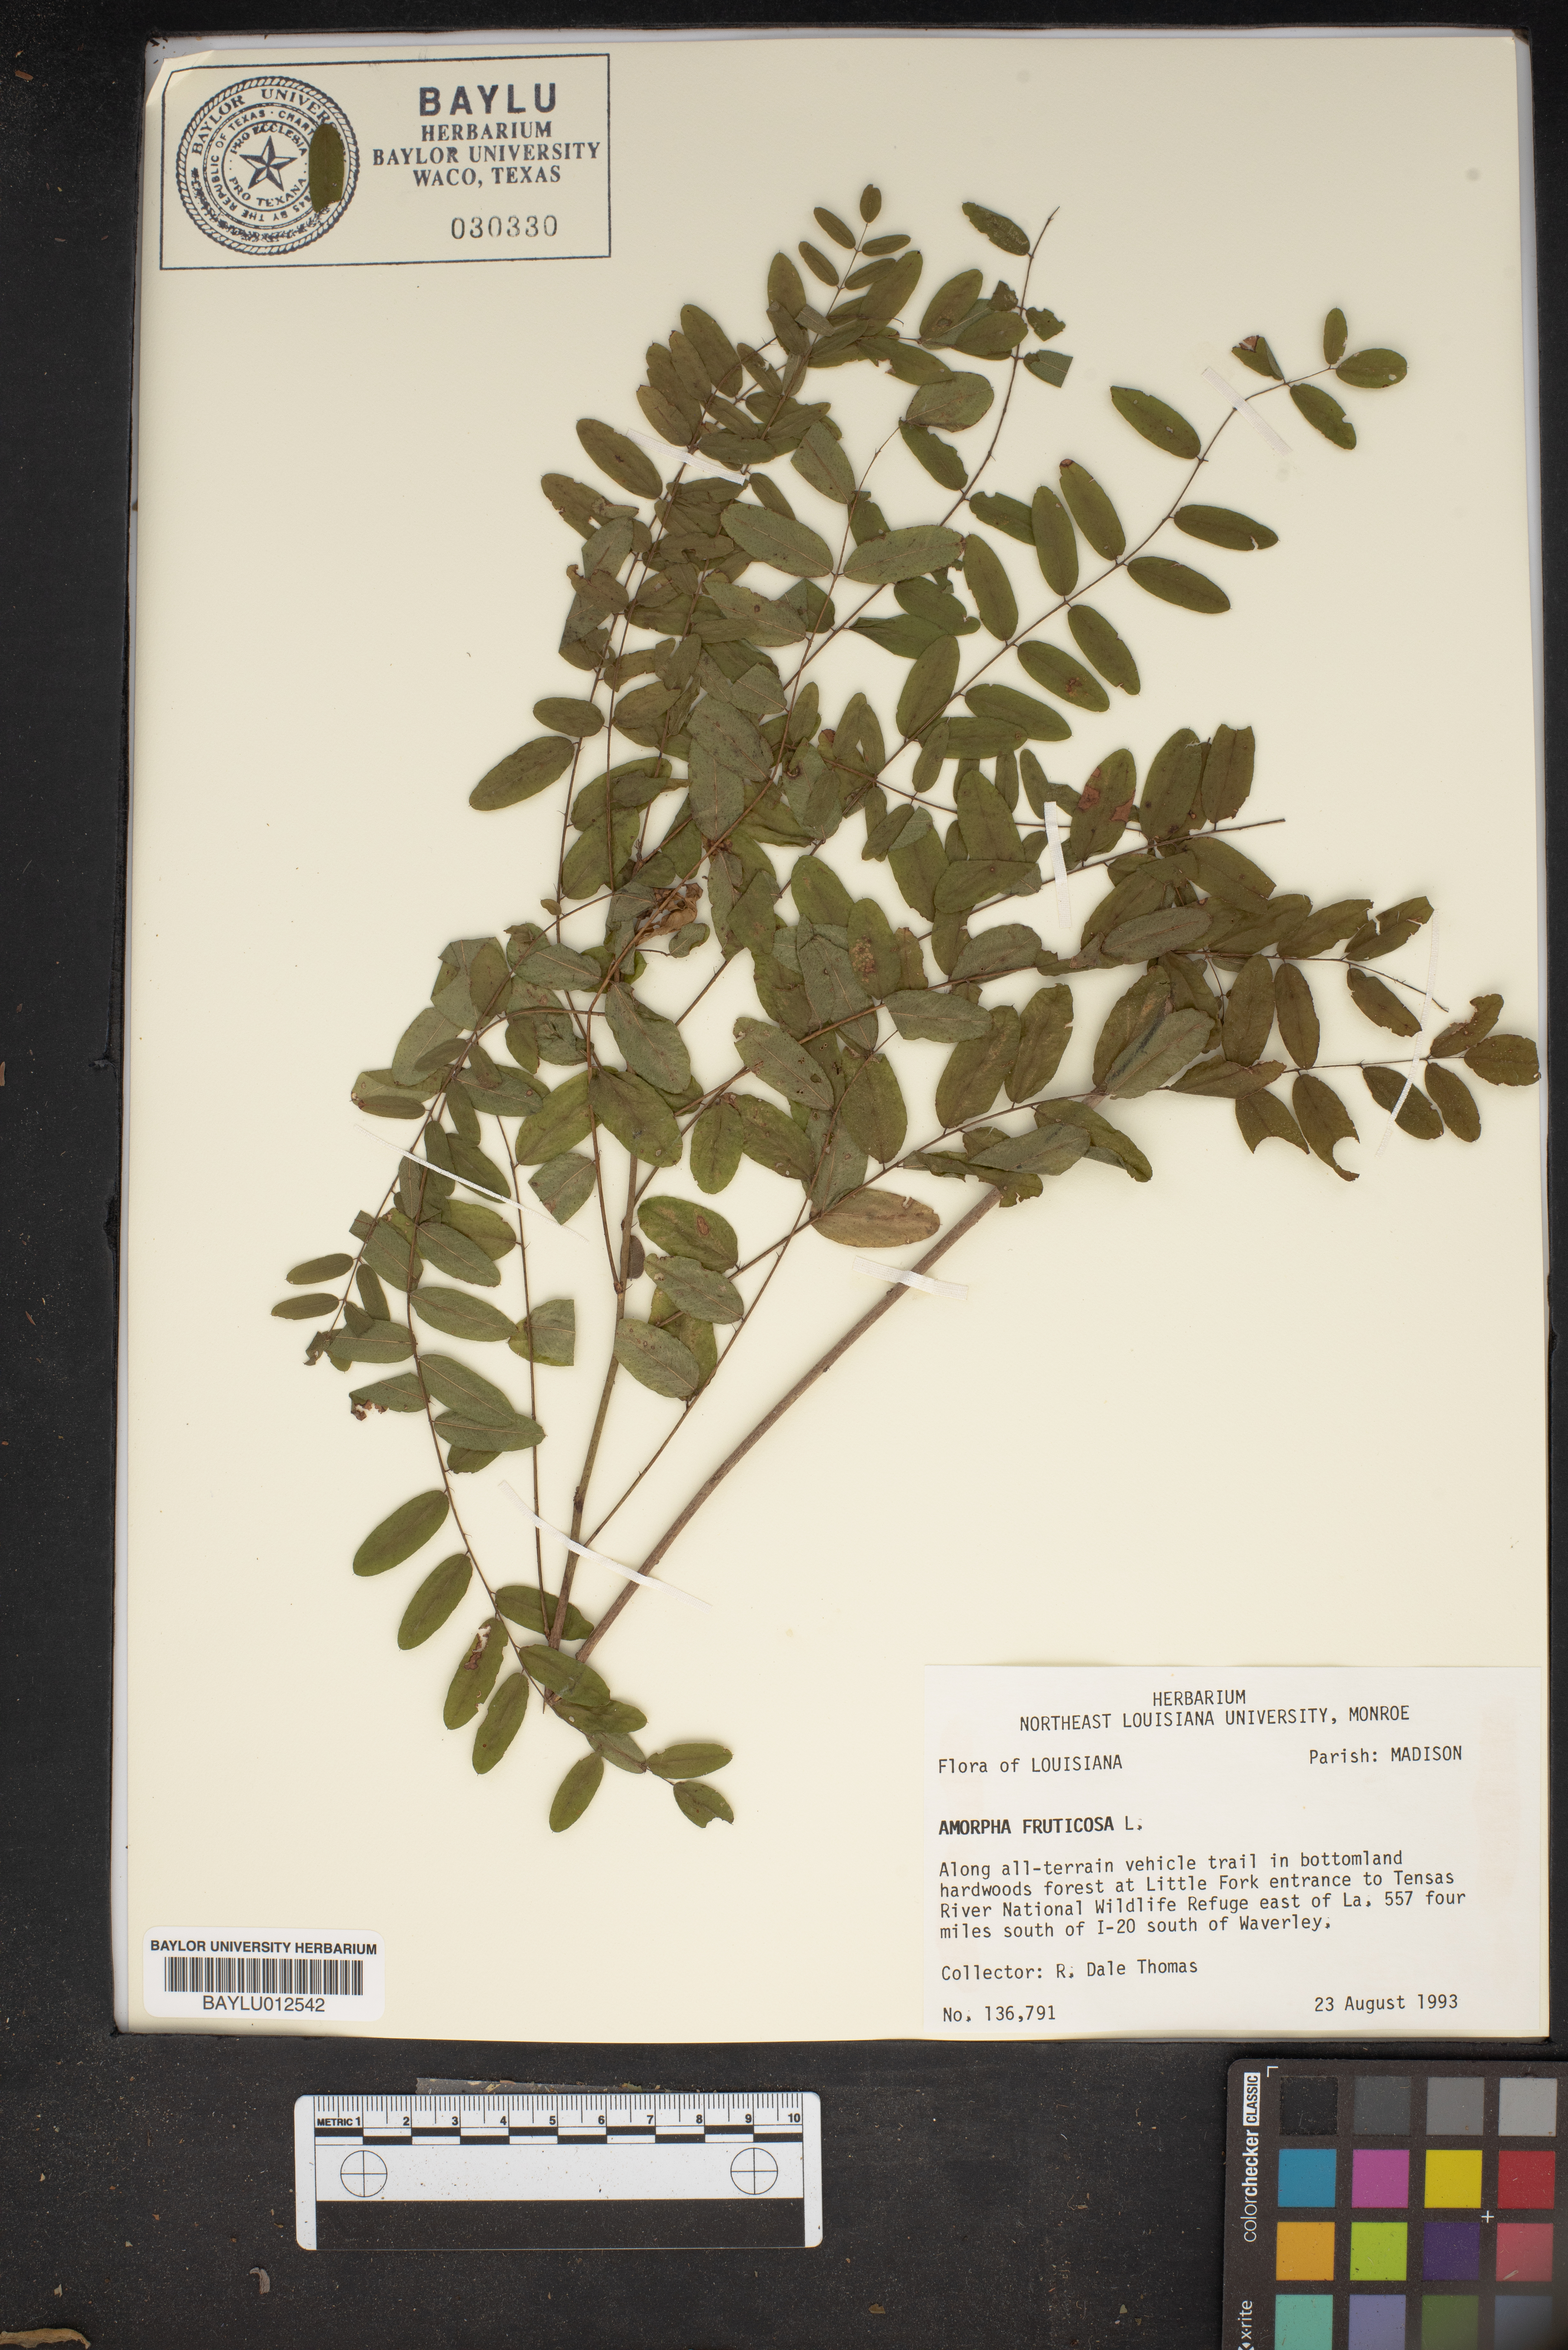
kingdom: Plantae
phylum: Tracheophyta
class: Magnoliopsida
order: Fabales
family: Fabaceae
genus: Amorpha
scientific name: Amorpha fruticosa
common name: False indigo
